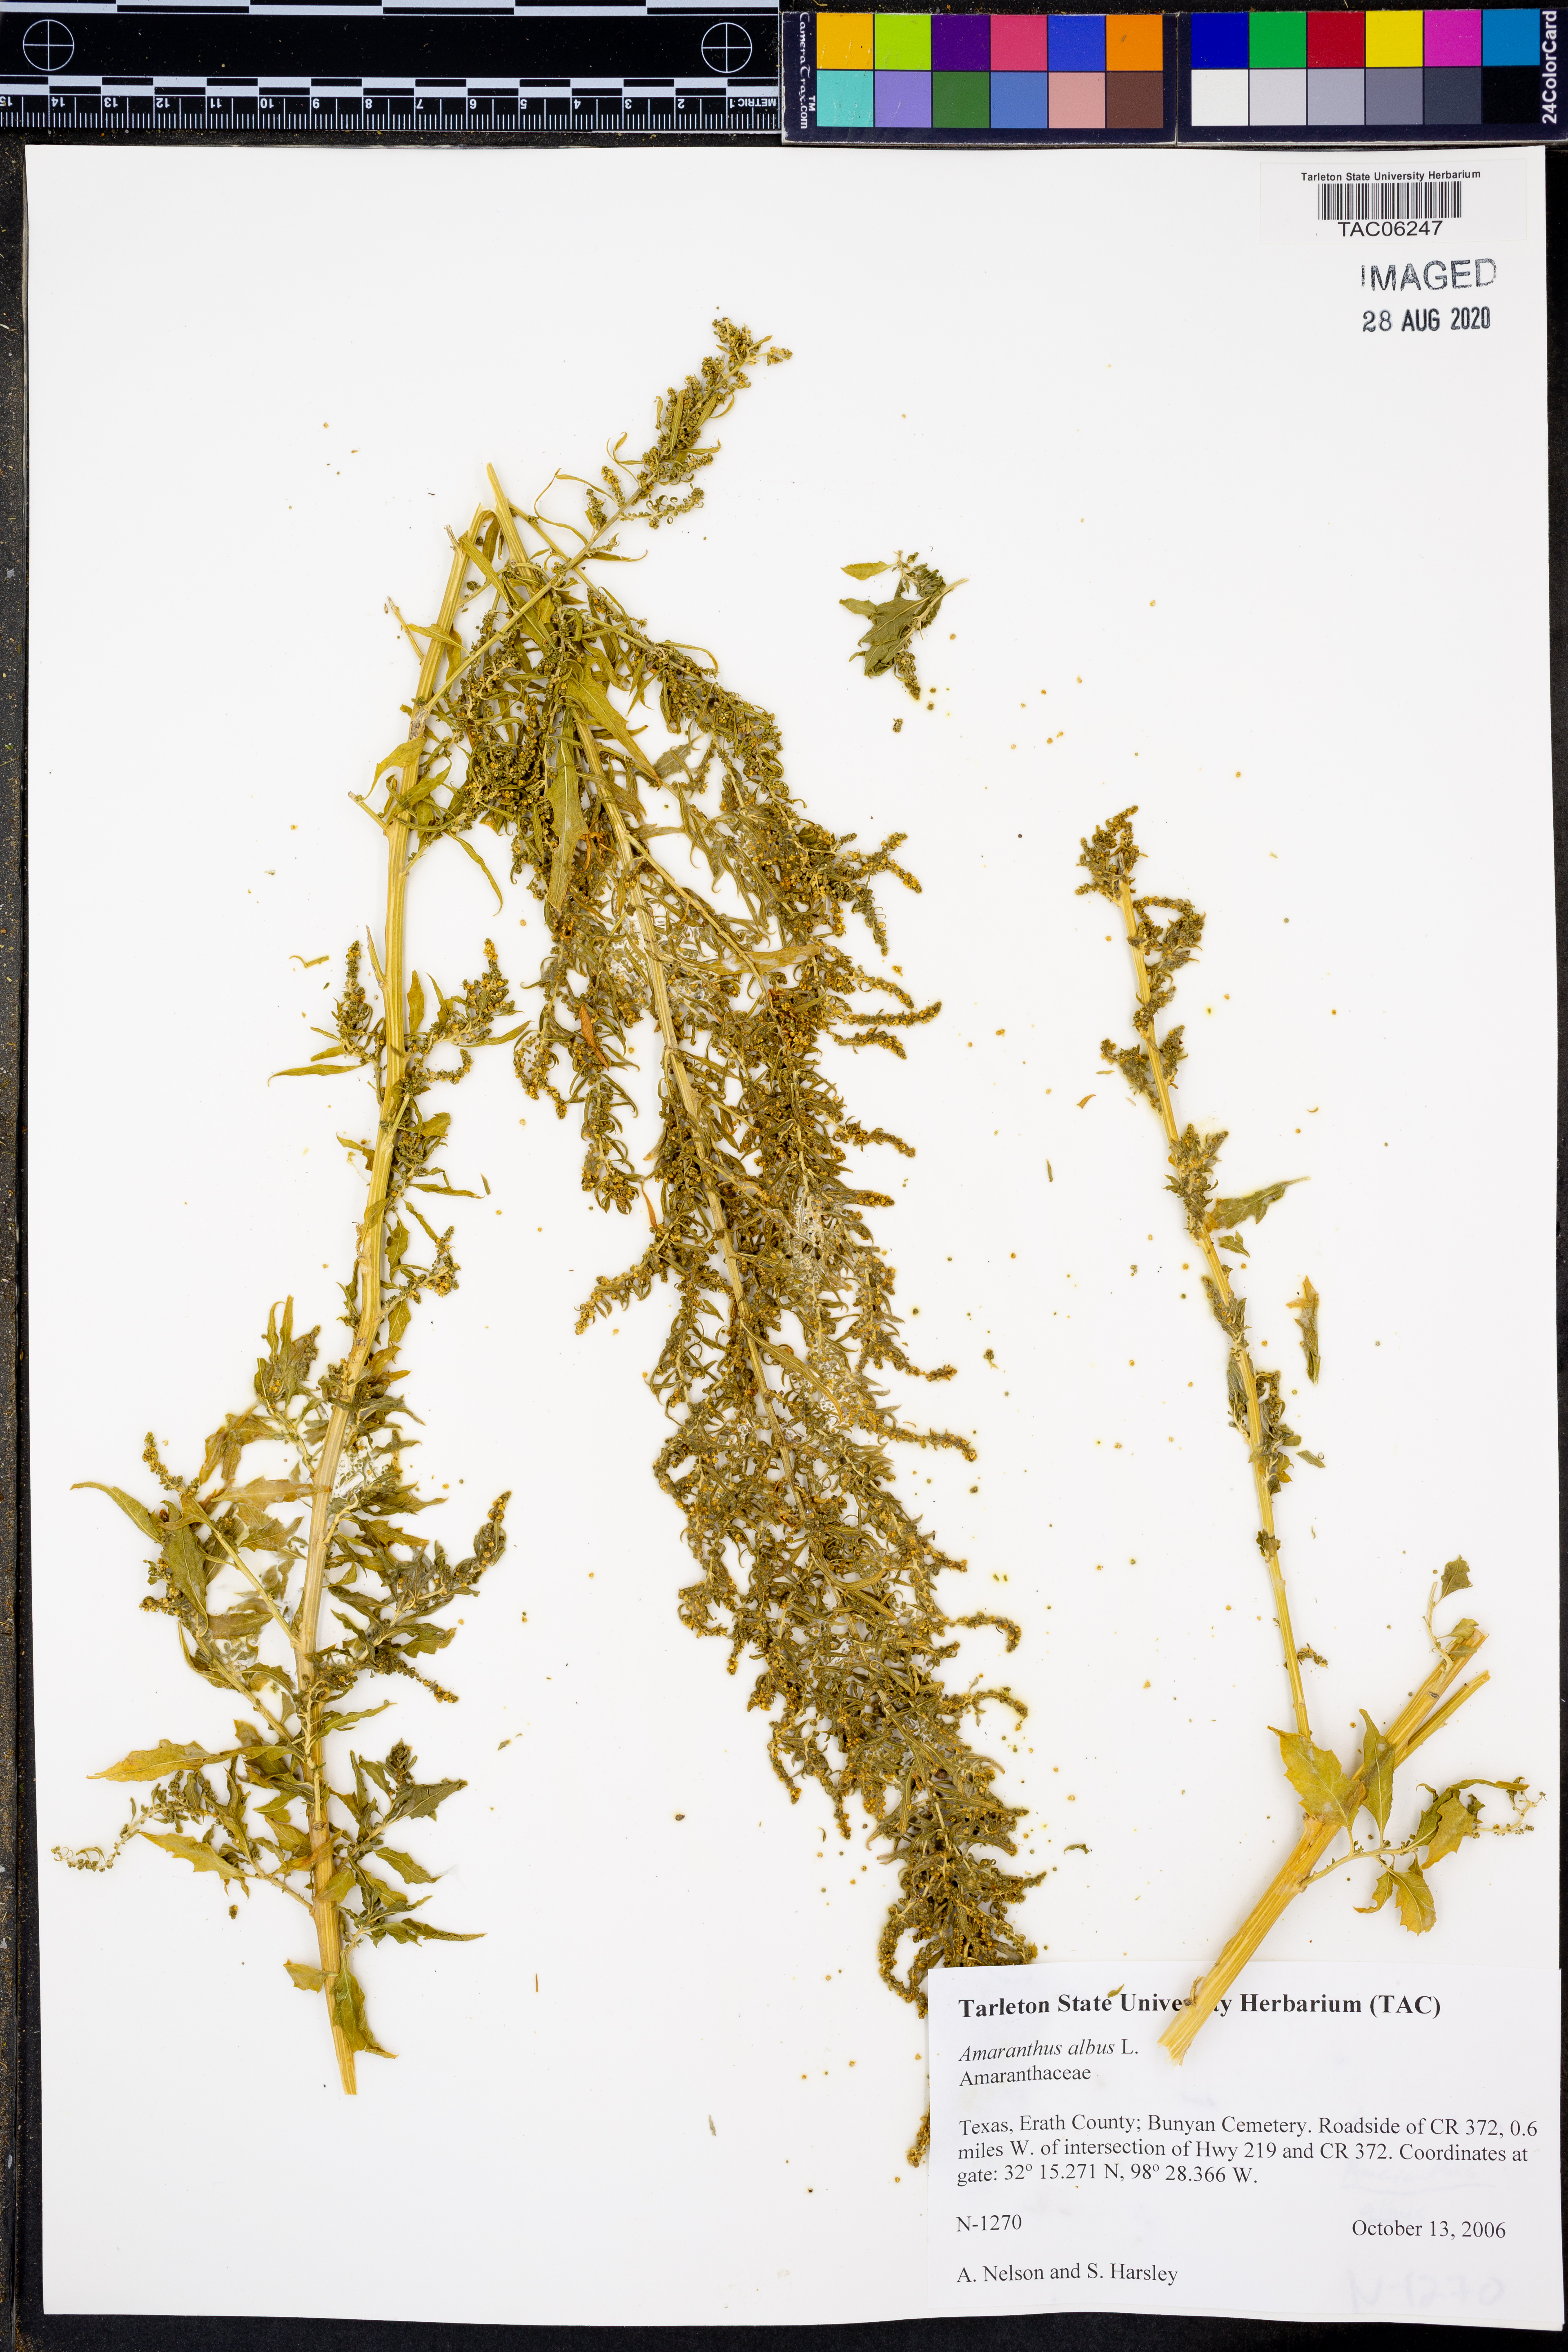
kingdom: Plantae
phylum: Tracheophyta
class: Magnoliopsida
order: Caryophyllales
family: Amaranthaceae
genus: Amaranthus
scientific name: Amaranthus albus
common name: White pigweed
